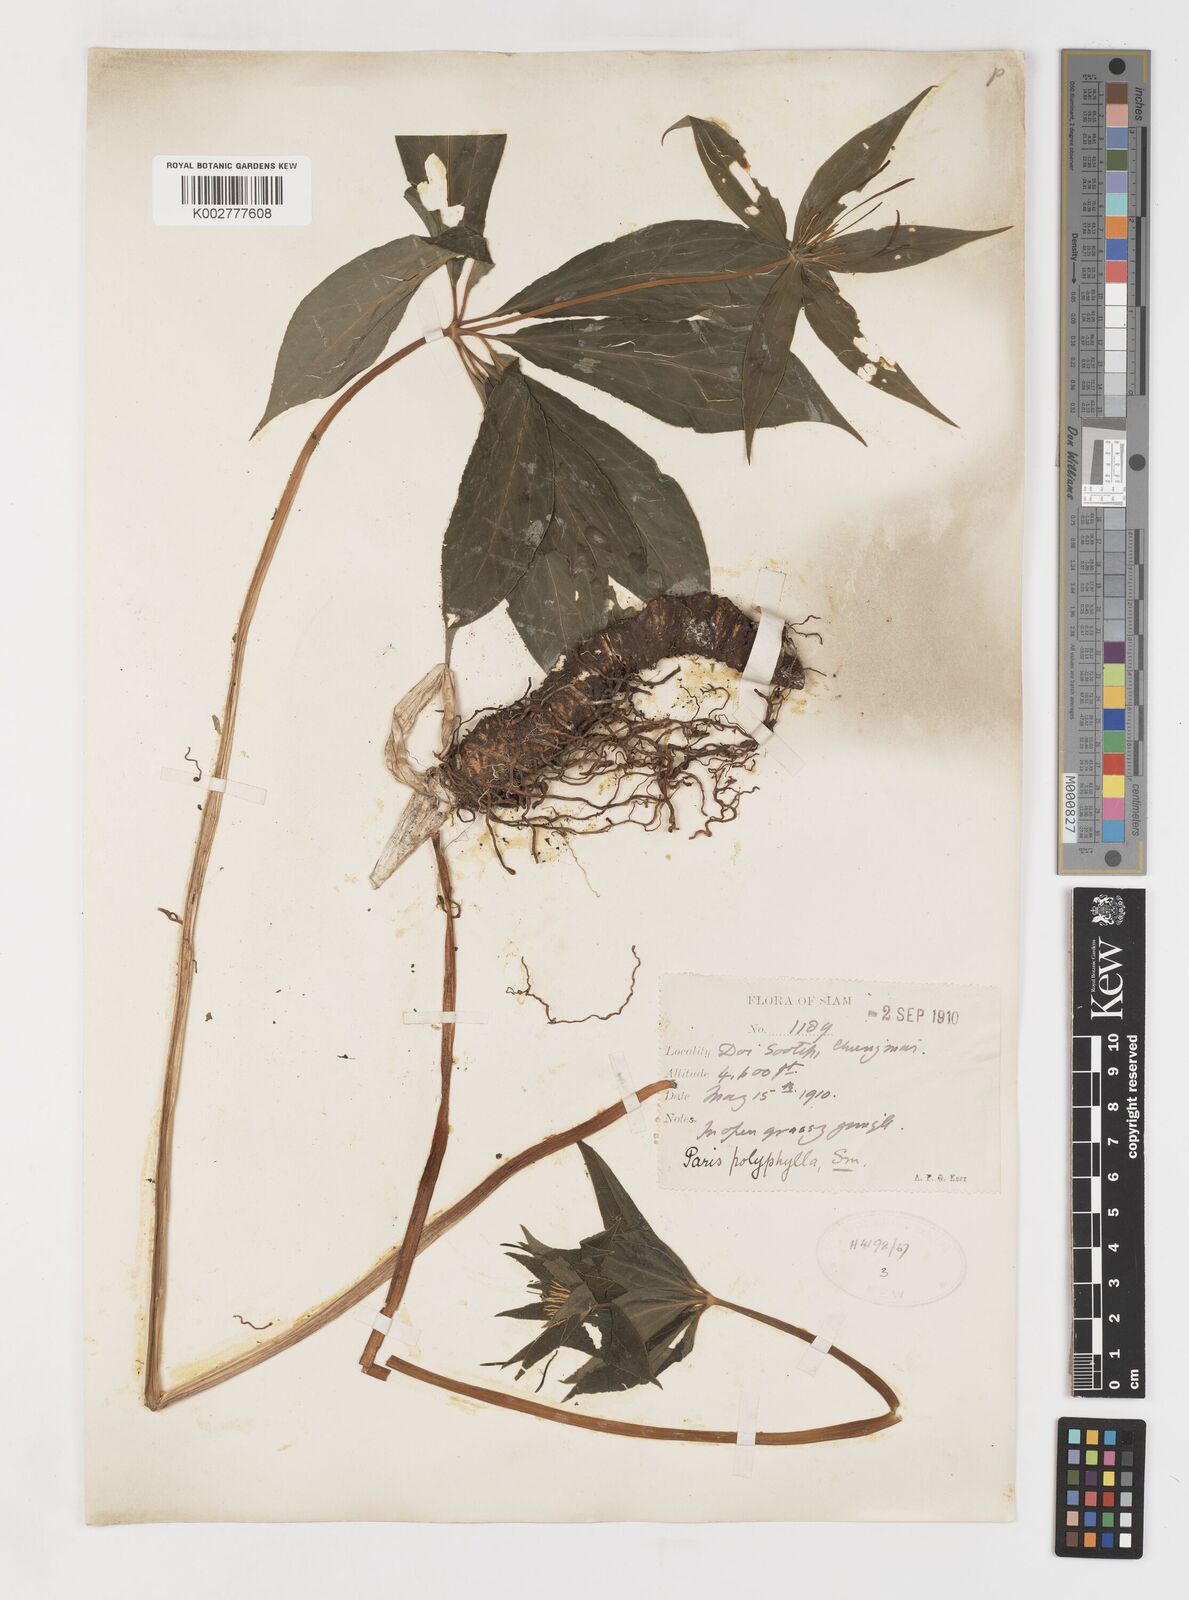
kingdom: Plantae
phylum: Tracheophyta
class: Liliopsida
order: Liliales
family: Melanthiaceae
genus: Paris
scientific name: Paris polyphylla
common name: Love apple
